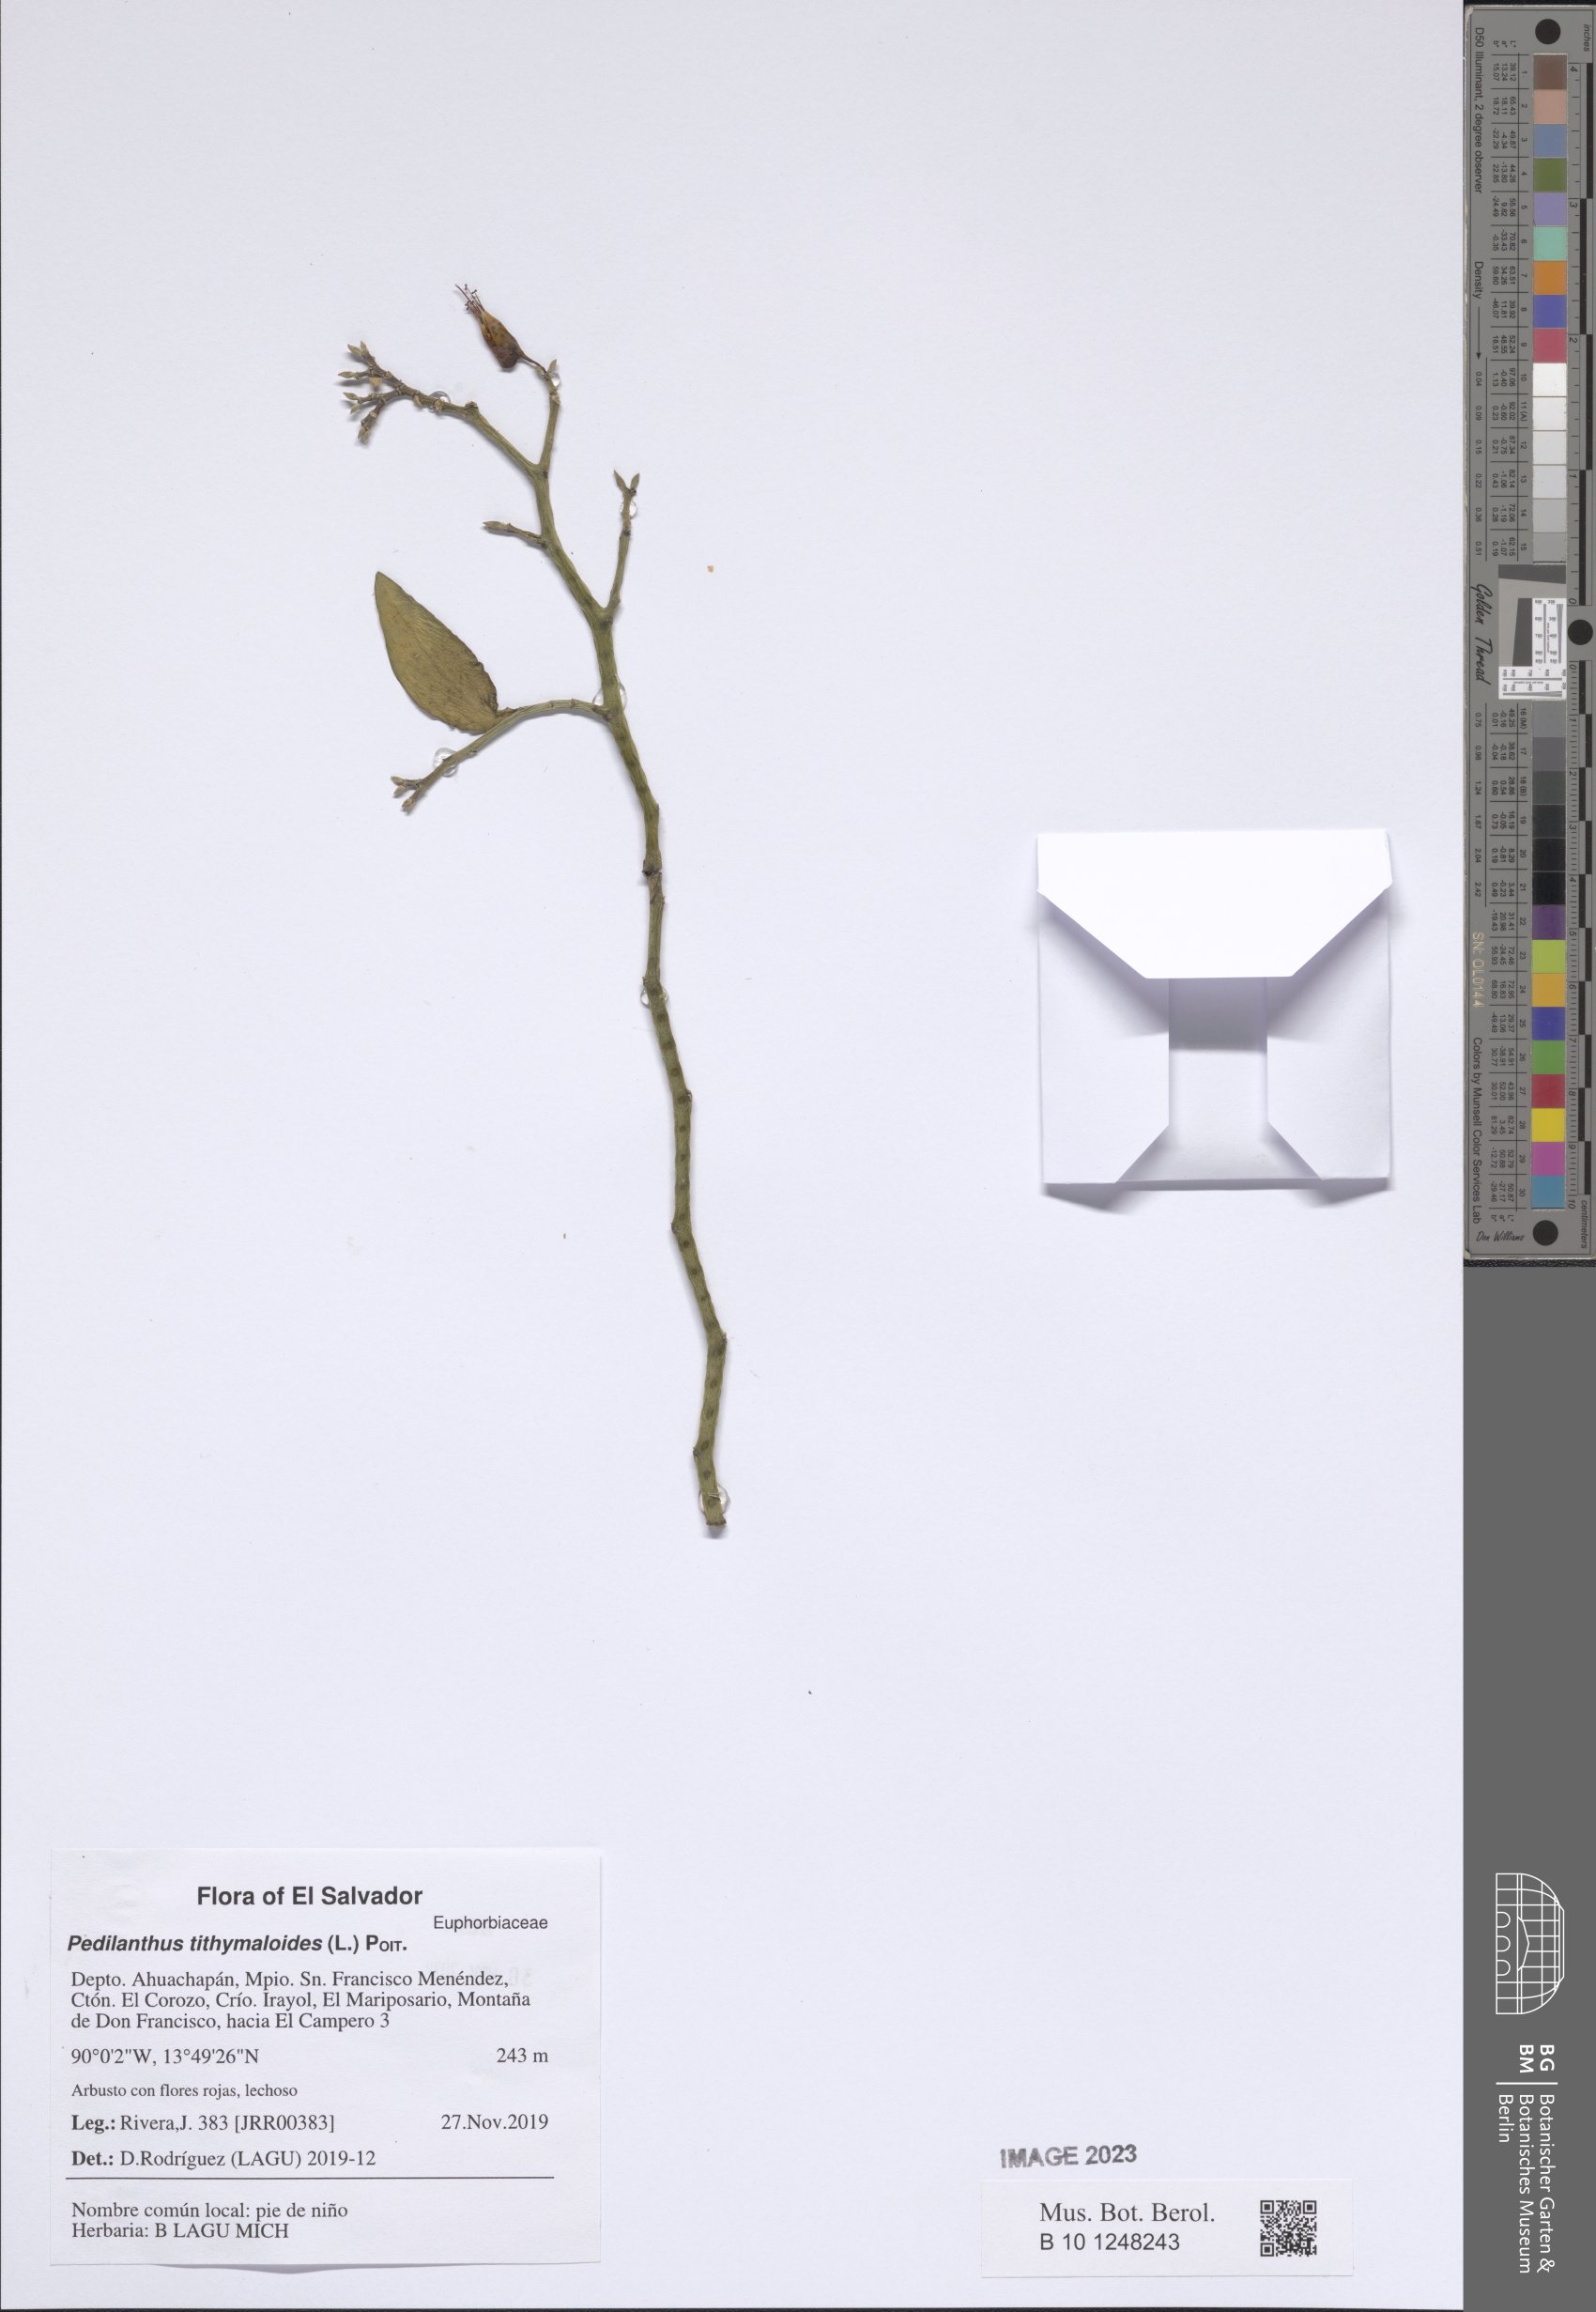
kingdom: Plantae
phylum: Tracheophyta
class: Magnoliopsida
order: Malpighiales
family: Euphorbiaceae
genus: Euphorbia
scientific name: Euphorbia tithymaloides
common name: Slipperplant
